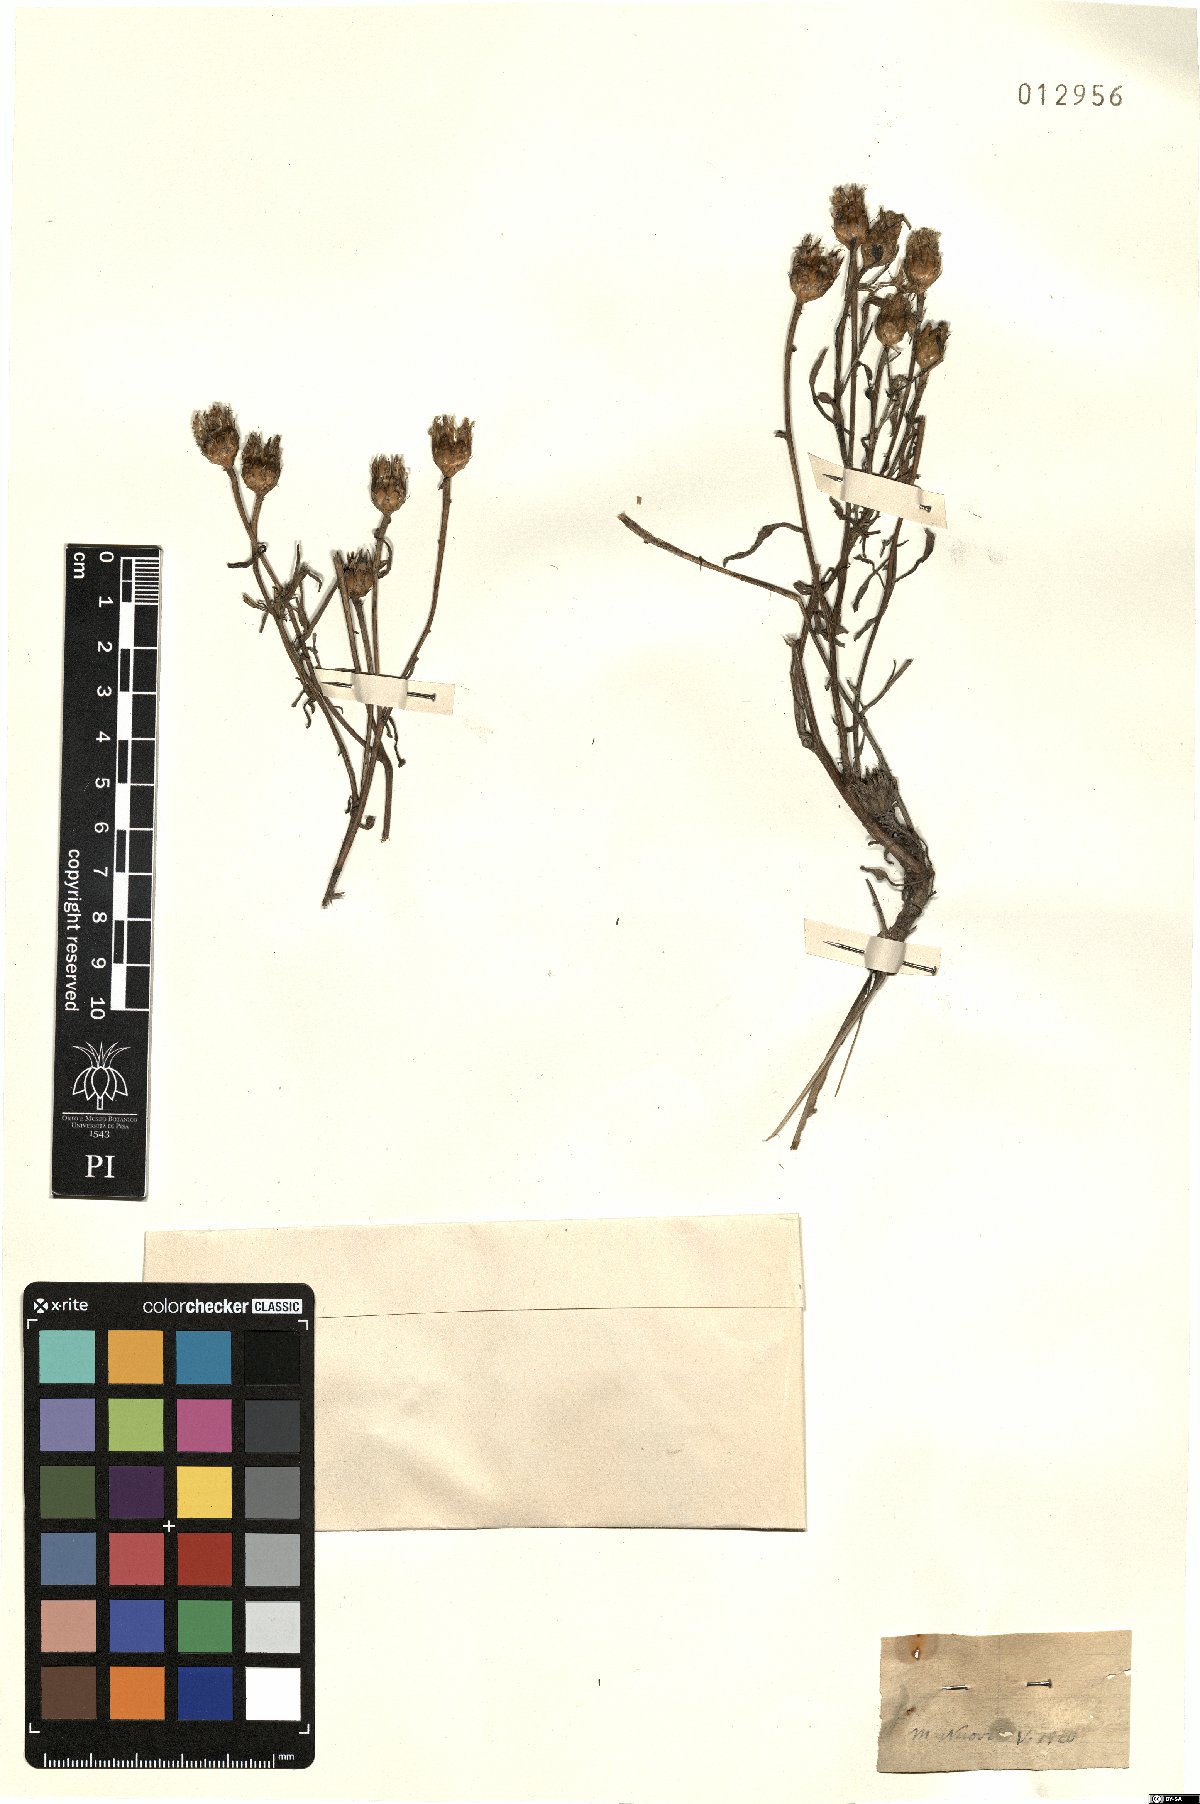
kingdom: Plantae
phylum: Tracheophyta
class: Magnoliopsida
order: Asterales
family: Asteraceae
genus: Centaurea
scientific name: Centaurea
